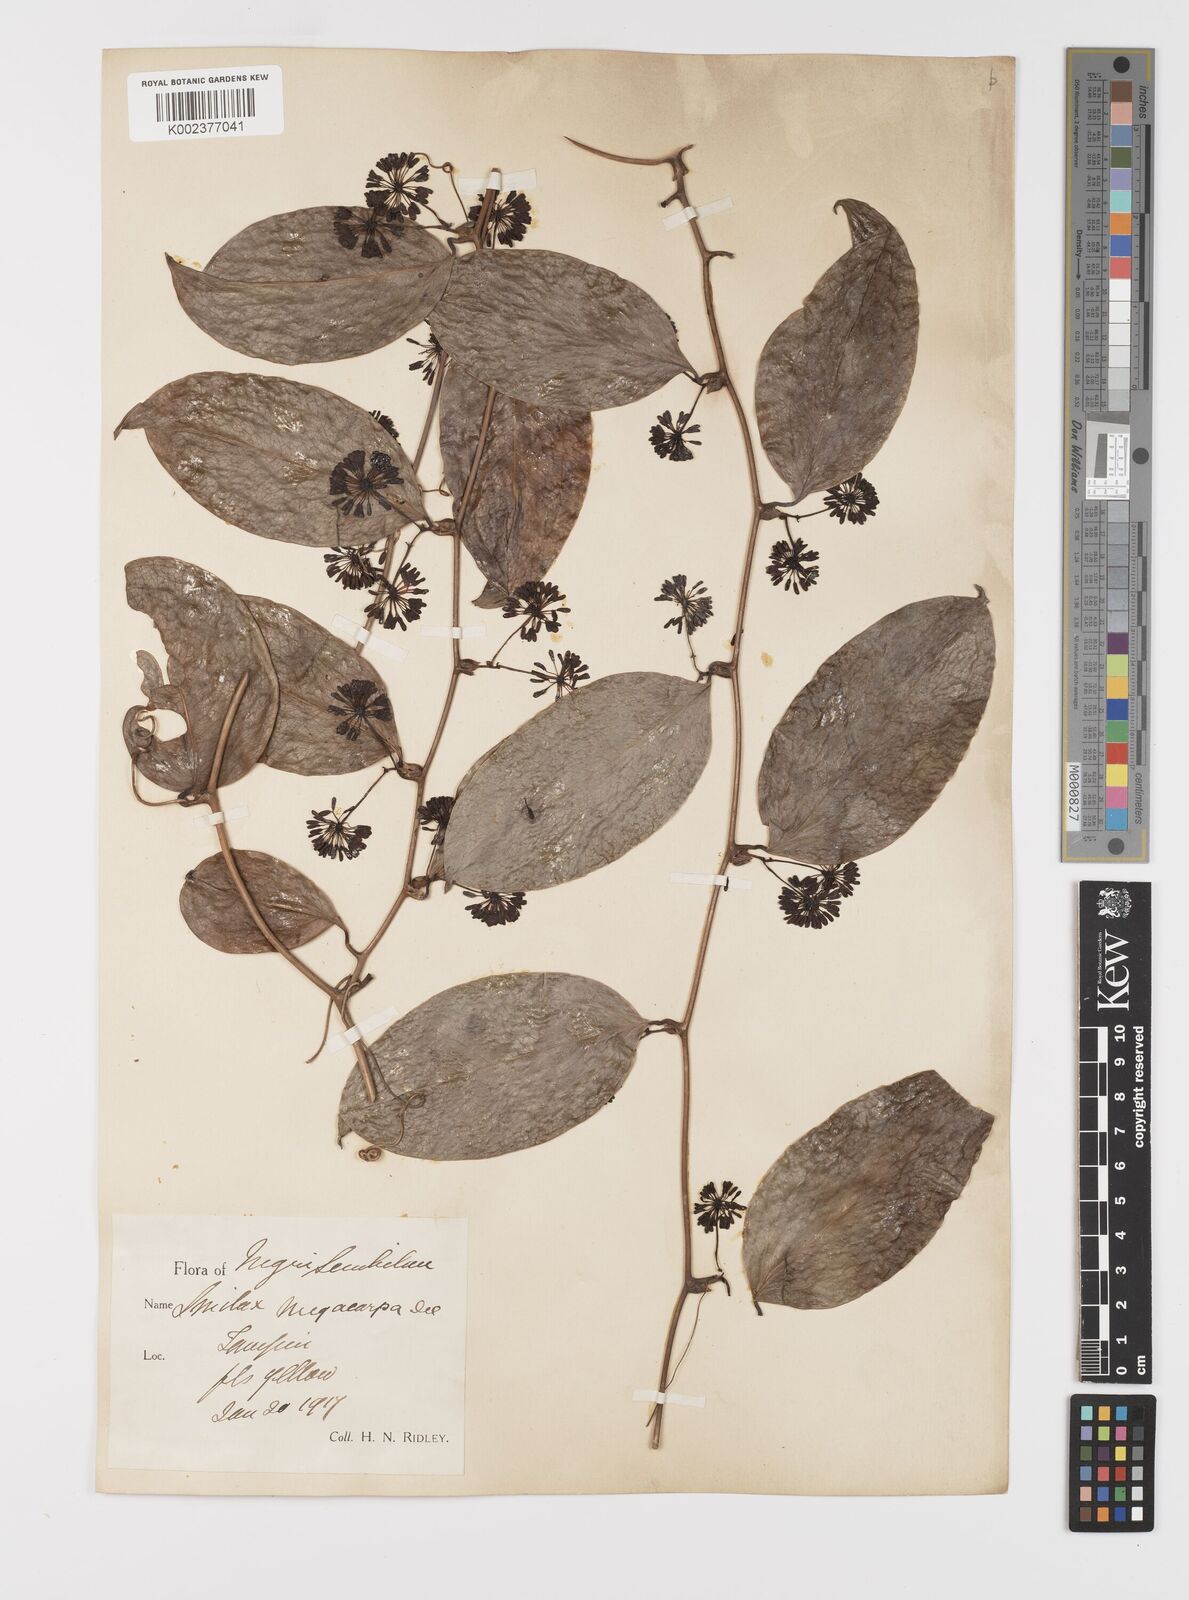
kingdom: Plantae
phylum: Tracheophyta
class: Liliopsida
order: Liliales
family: Smilacaceae
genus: Smilax
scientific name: Smilax megacarpa
